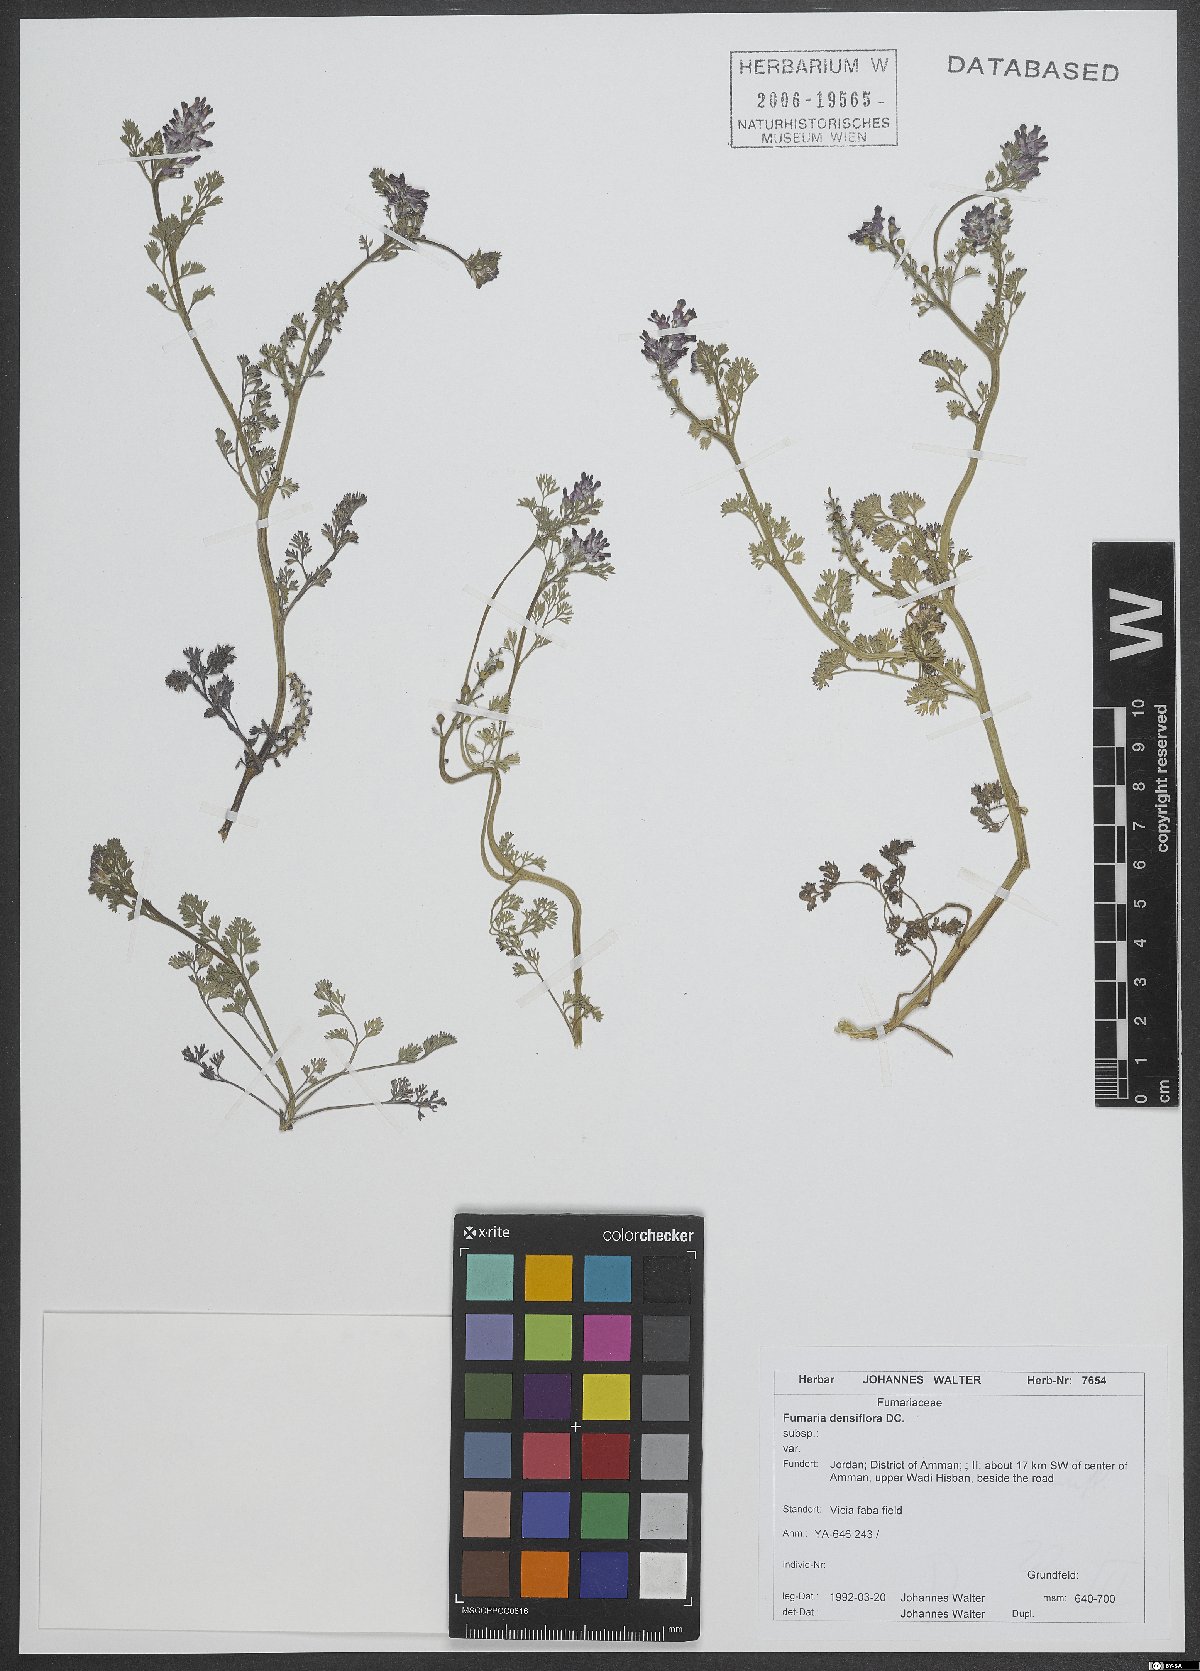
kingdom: Plantae
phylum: Tracheophyta
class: Magnoliopsida
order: Ranunculales
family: Papaveraceae
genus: Fumaria
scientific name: Fumaria densiflora
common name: Dense-flowered fumitory
